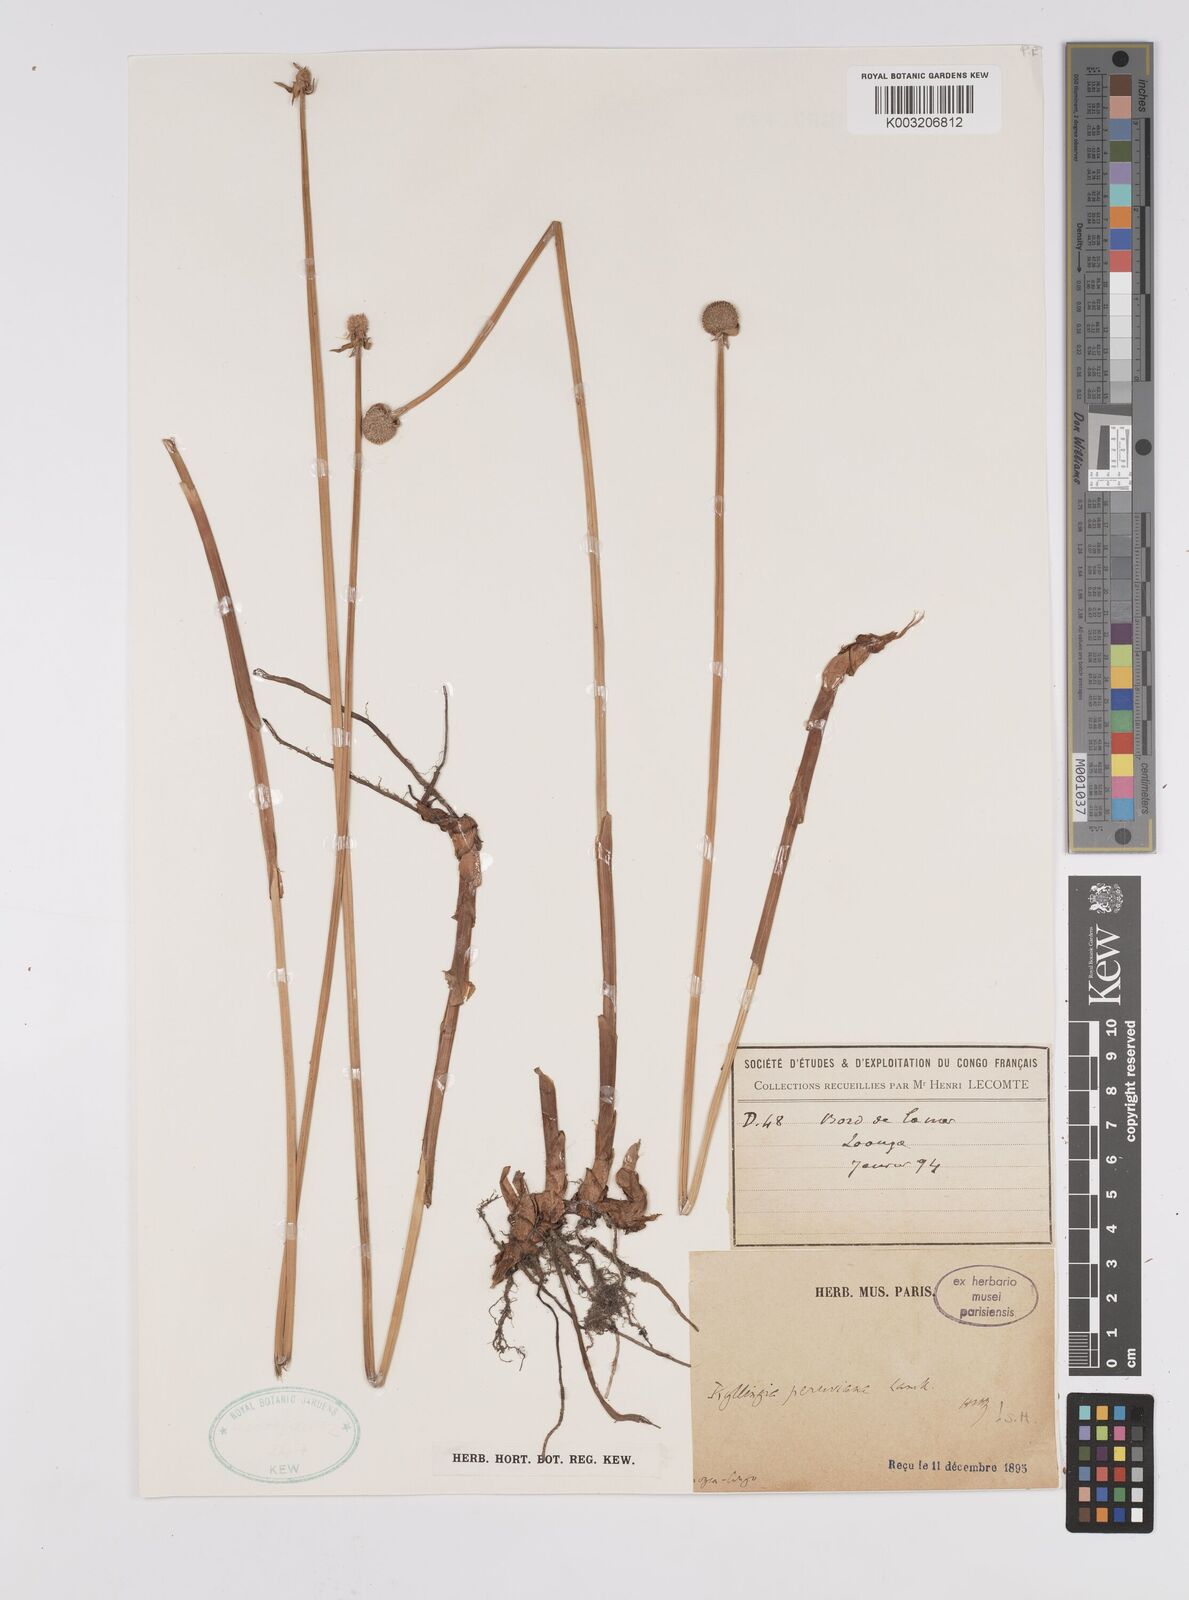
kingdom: Plantae
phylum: Tracheophyta
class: Liliopsida
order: Poales
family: Cyperaceae
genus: Cyperus
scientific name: Cyperus
